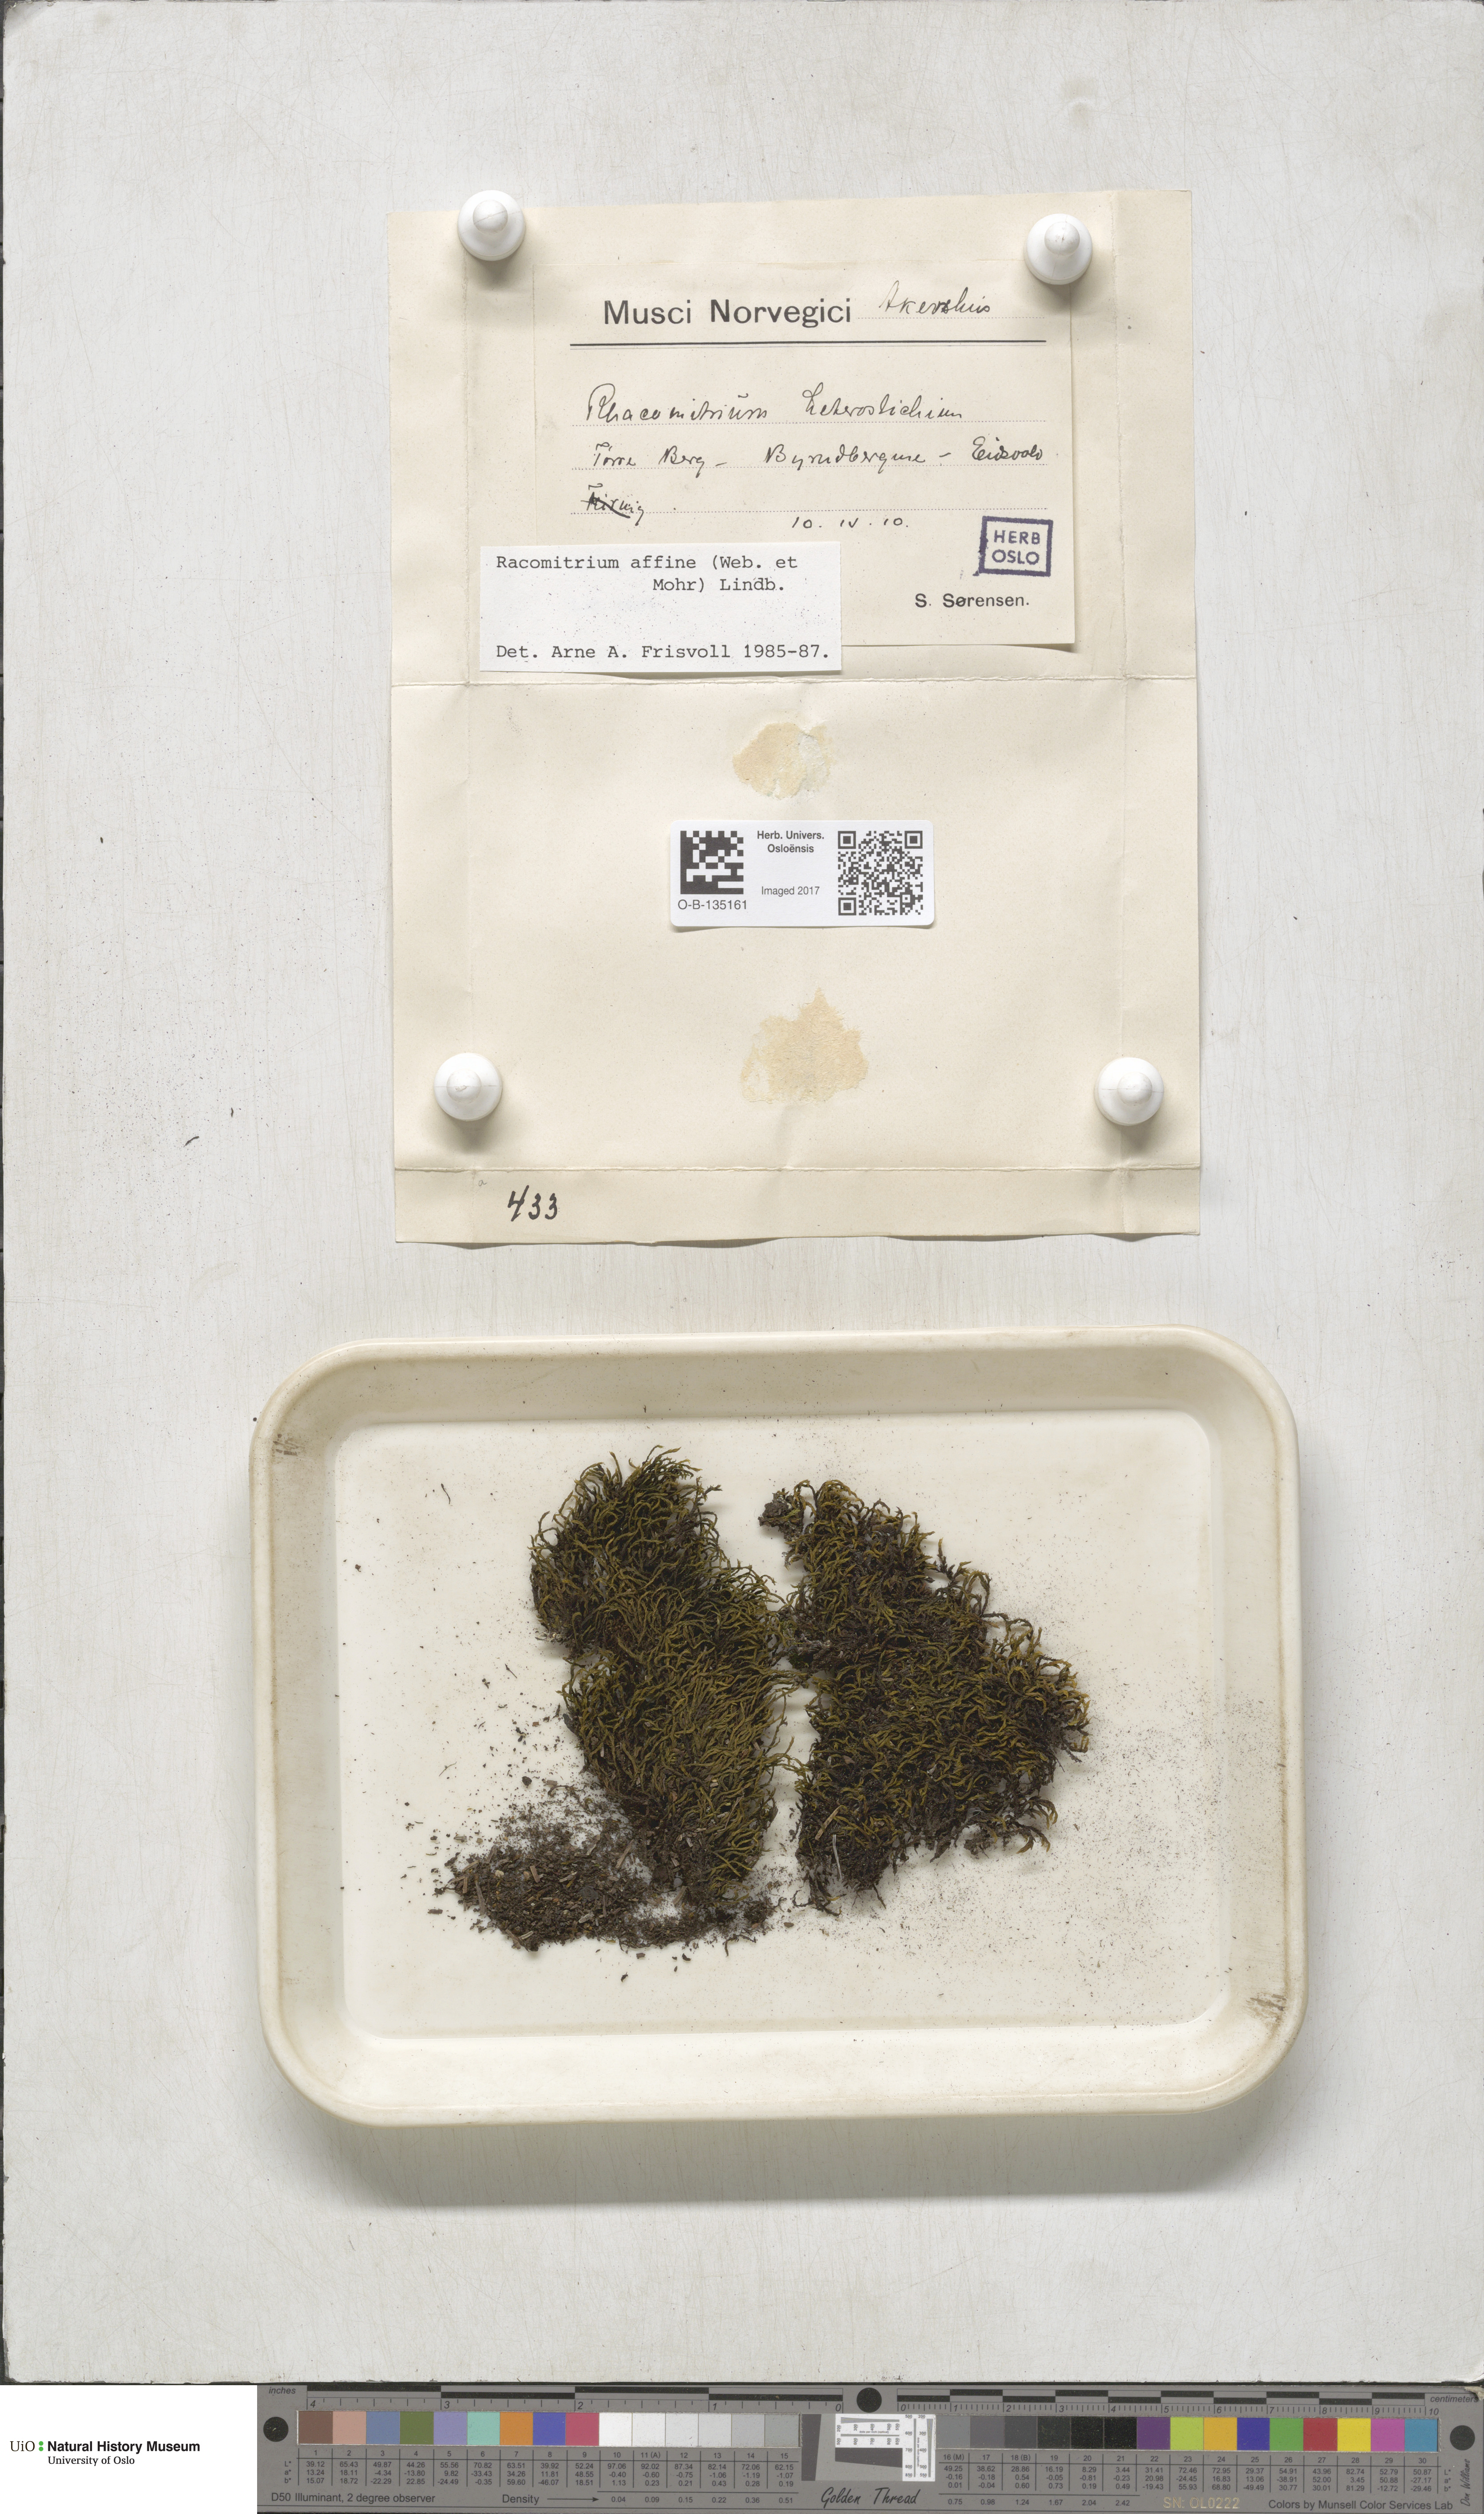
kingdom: Plantae
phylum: Bryophyta
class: Bryopsida
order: Grimmiales
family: Grimmiaceae
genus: Bucklandiella
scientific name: Bucklandiella affinis
